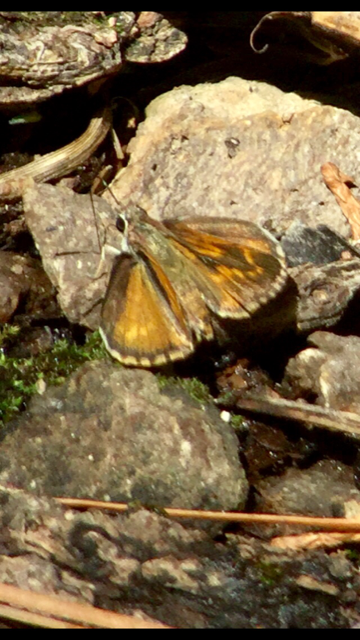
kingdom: Animalia
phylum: Arthropoda
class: Insecta
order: Lepidoptera
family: Hesperiidae
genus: Mastor
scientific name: Mastor cassus
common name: Cassus Roadside-Skipper
